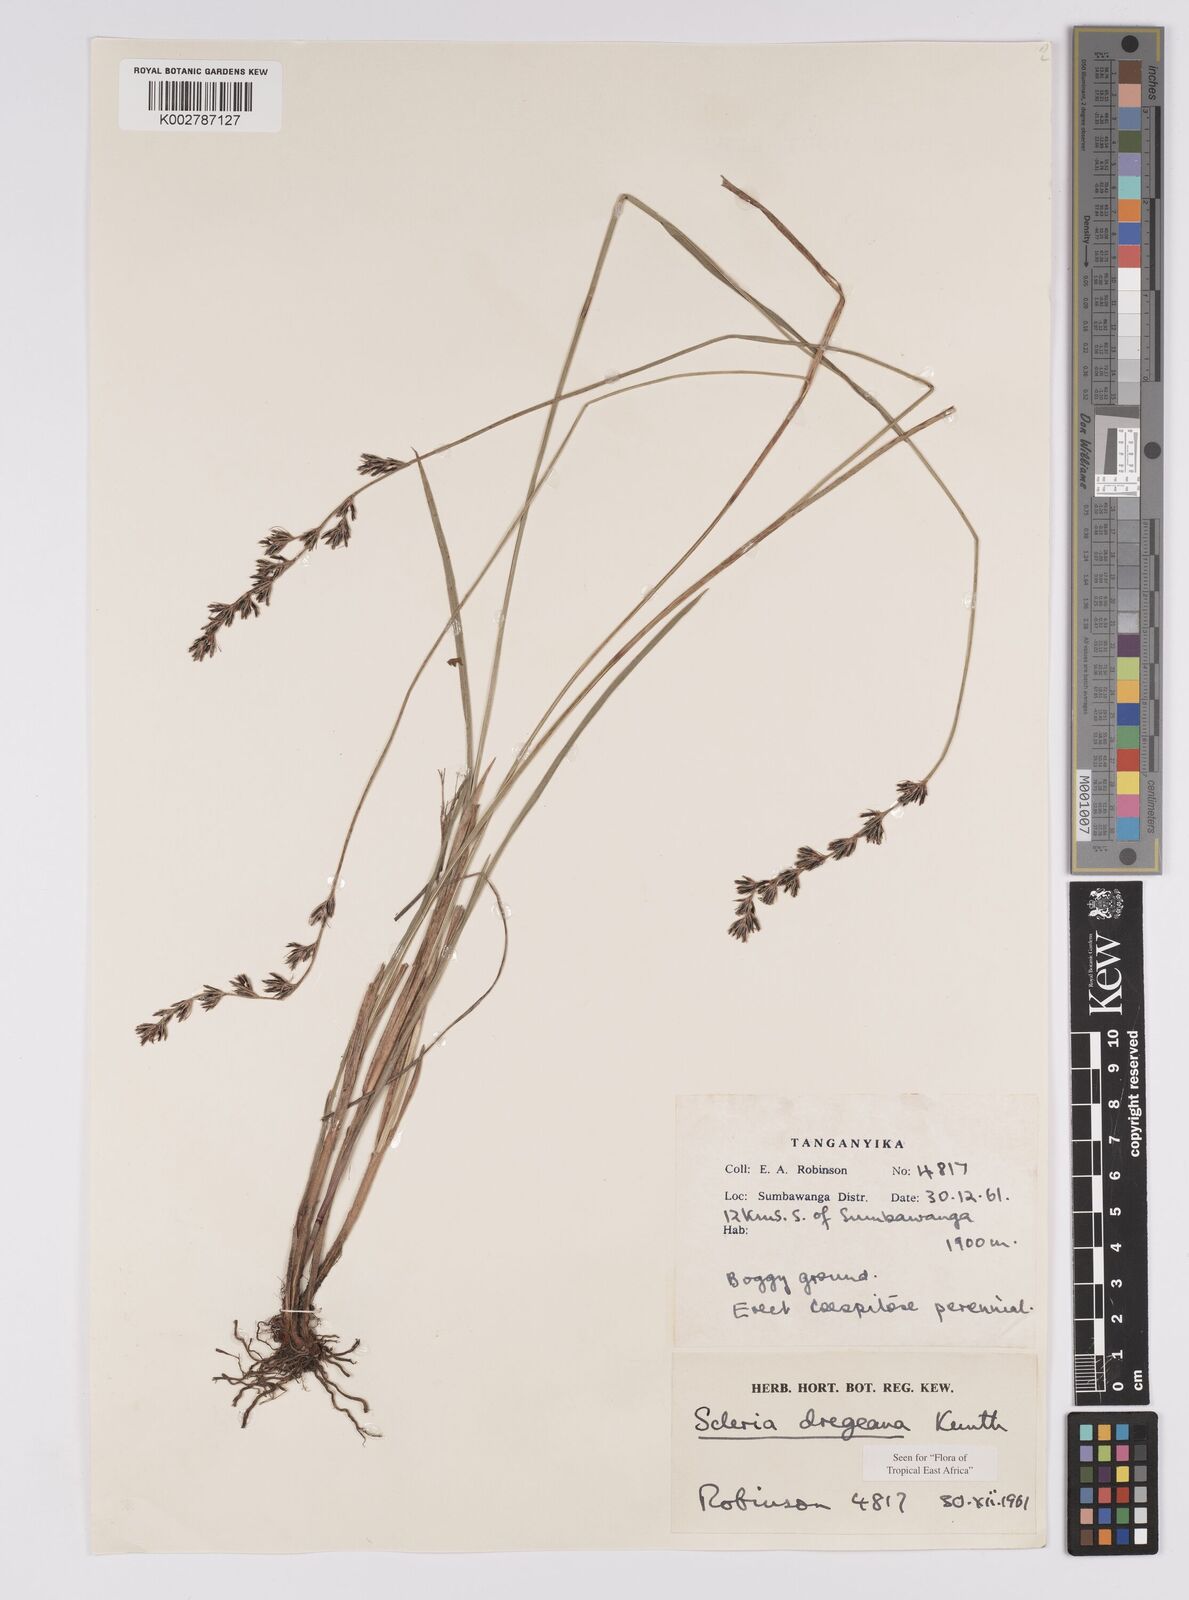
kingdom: Plantae
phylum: Tracheophyta
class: Liliopsida
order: Poales
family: Cyperaceae
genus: Scleria
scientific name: Scleria dregeana
